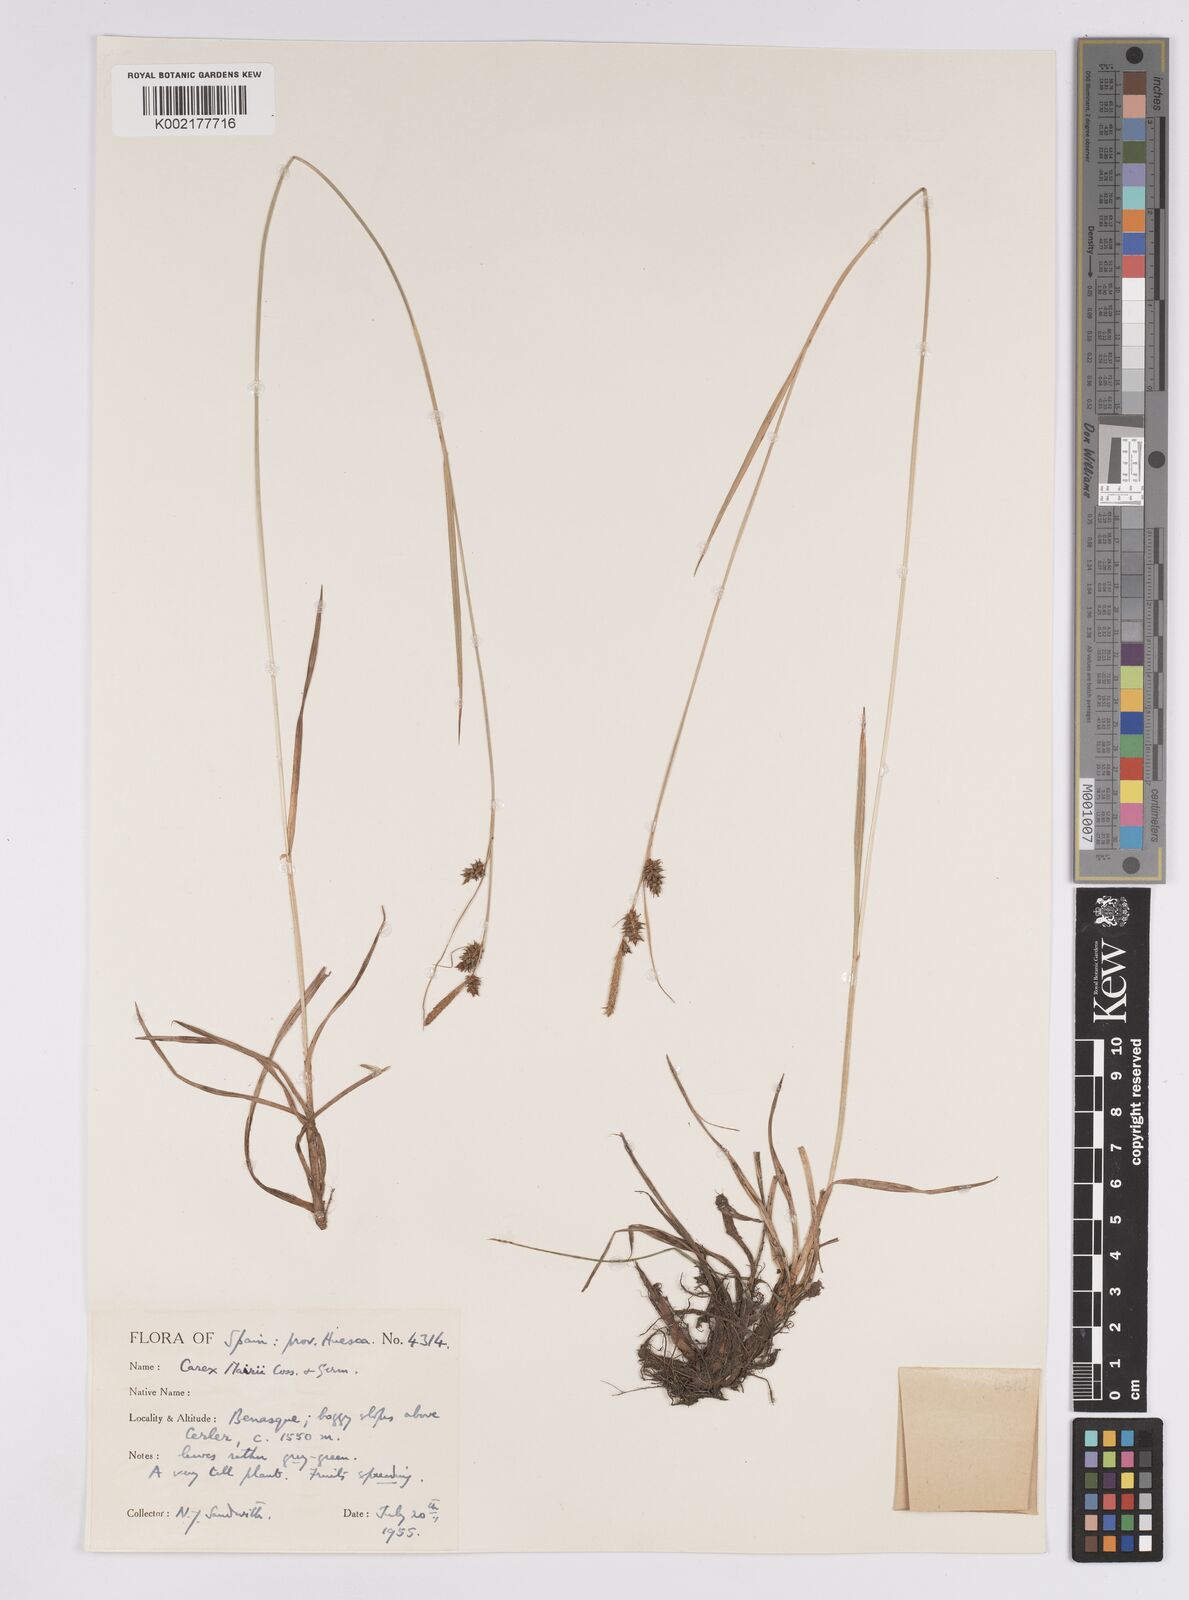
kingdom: Plantae
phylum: Tracheophyta
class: Liliopsida
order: Poales
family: Cyperaceae
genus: Carex
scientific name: Carex mairei
